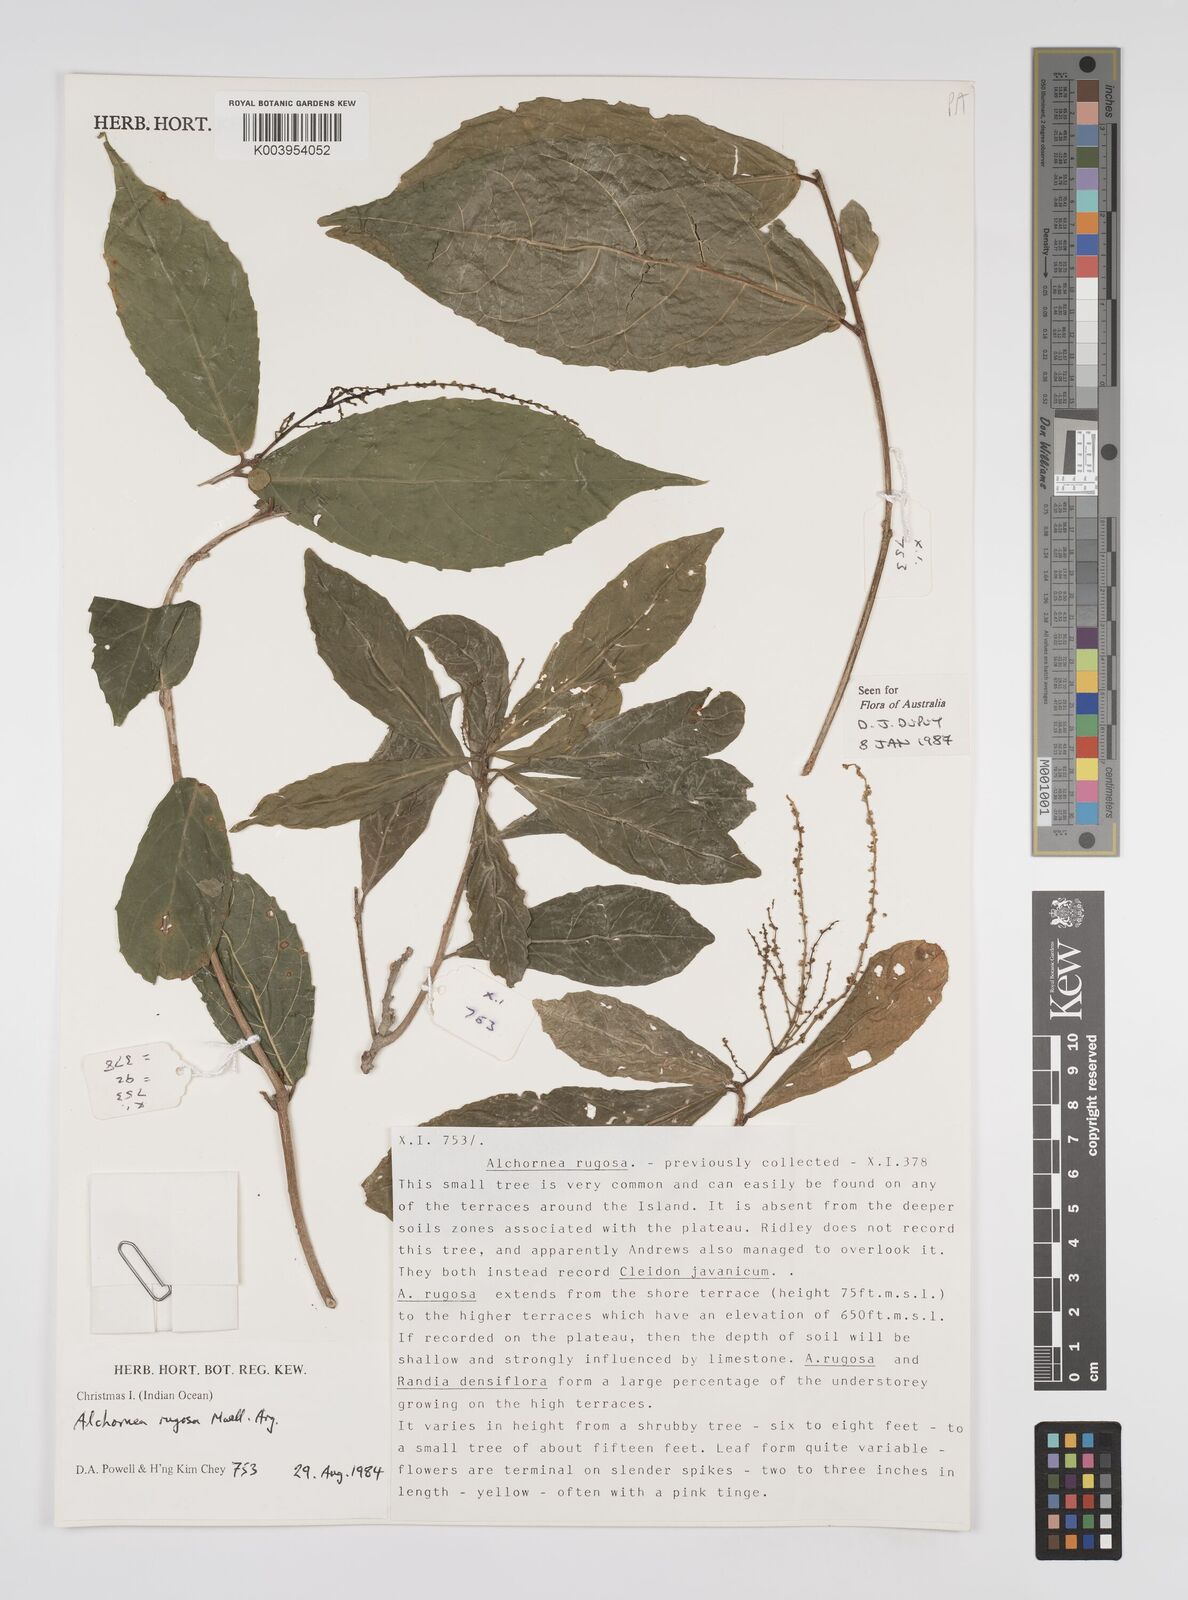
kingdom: Plantae
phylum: Tracheophyta
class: Magnoliopsida
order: Malpighiales
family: Euphorbiaceae
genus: Alchornea
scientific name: Alchornea rugosa
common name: Alchorntree
